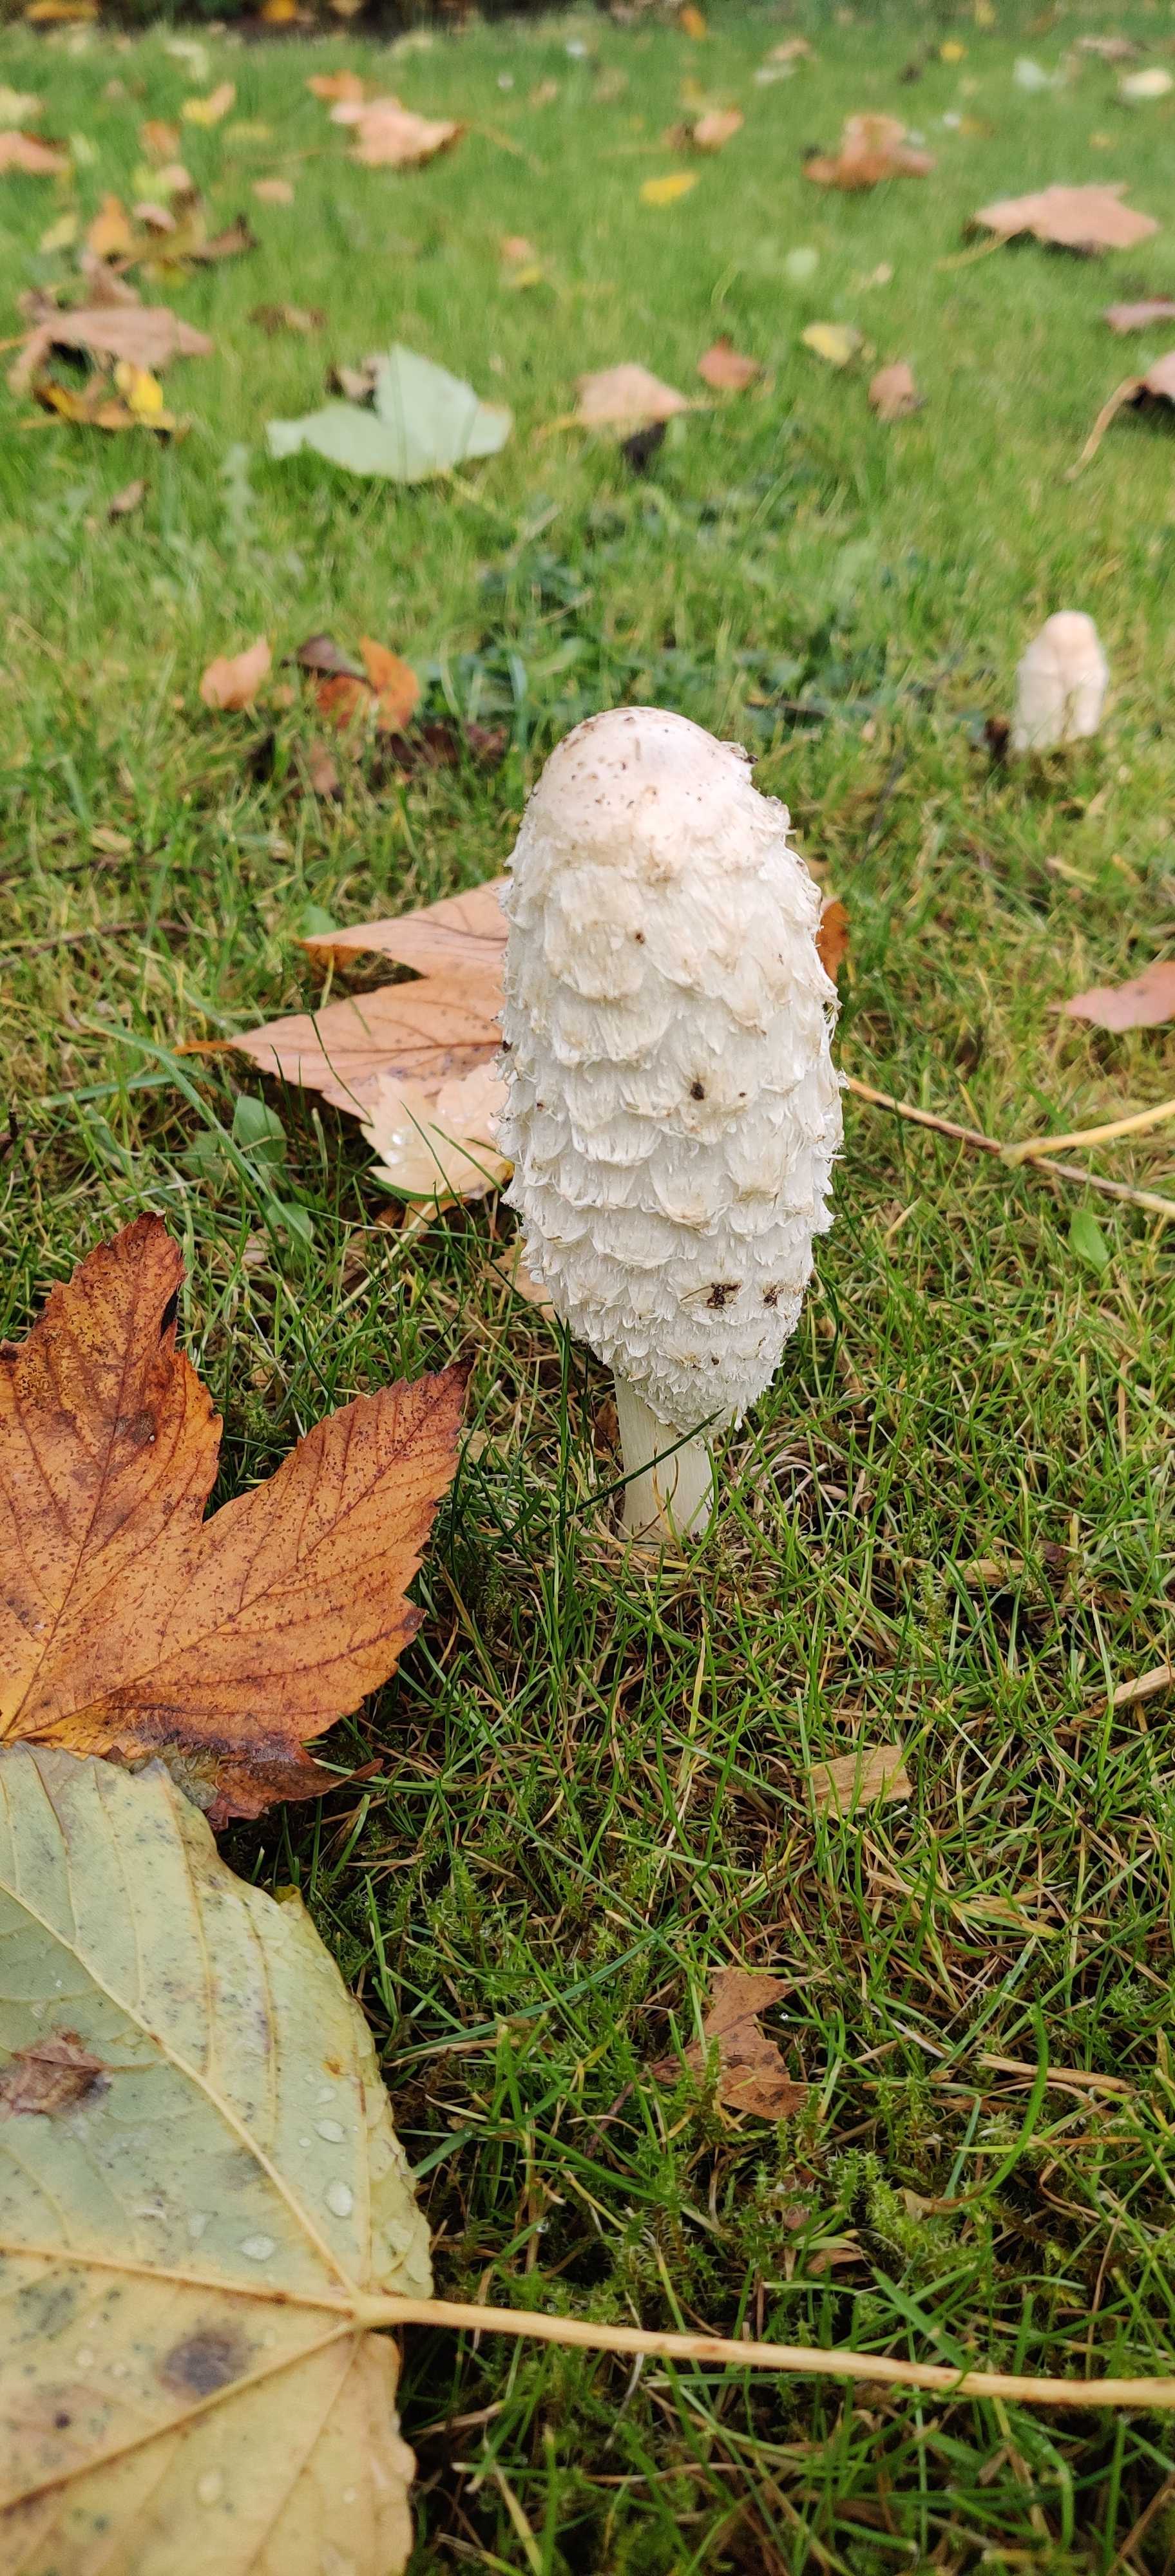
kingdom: Fungi
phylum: Basidiomycota
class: Agaricomycetes
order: Agaricales
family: Agaricaceae
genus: Coprinus
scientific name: Coprinus comatus
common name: stor parykhat
